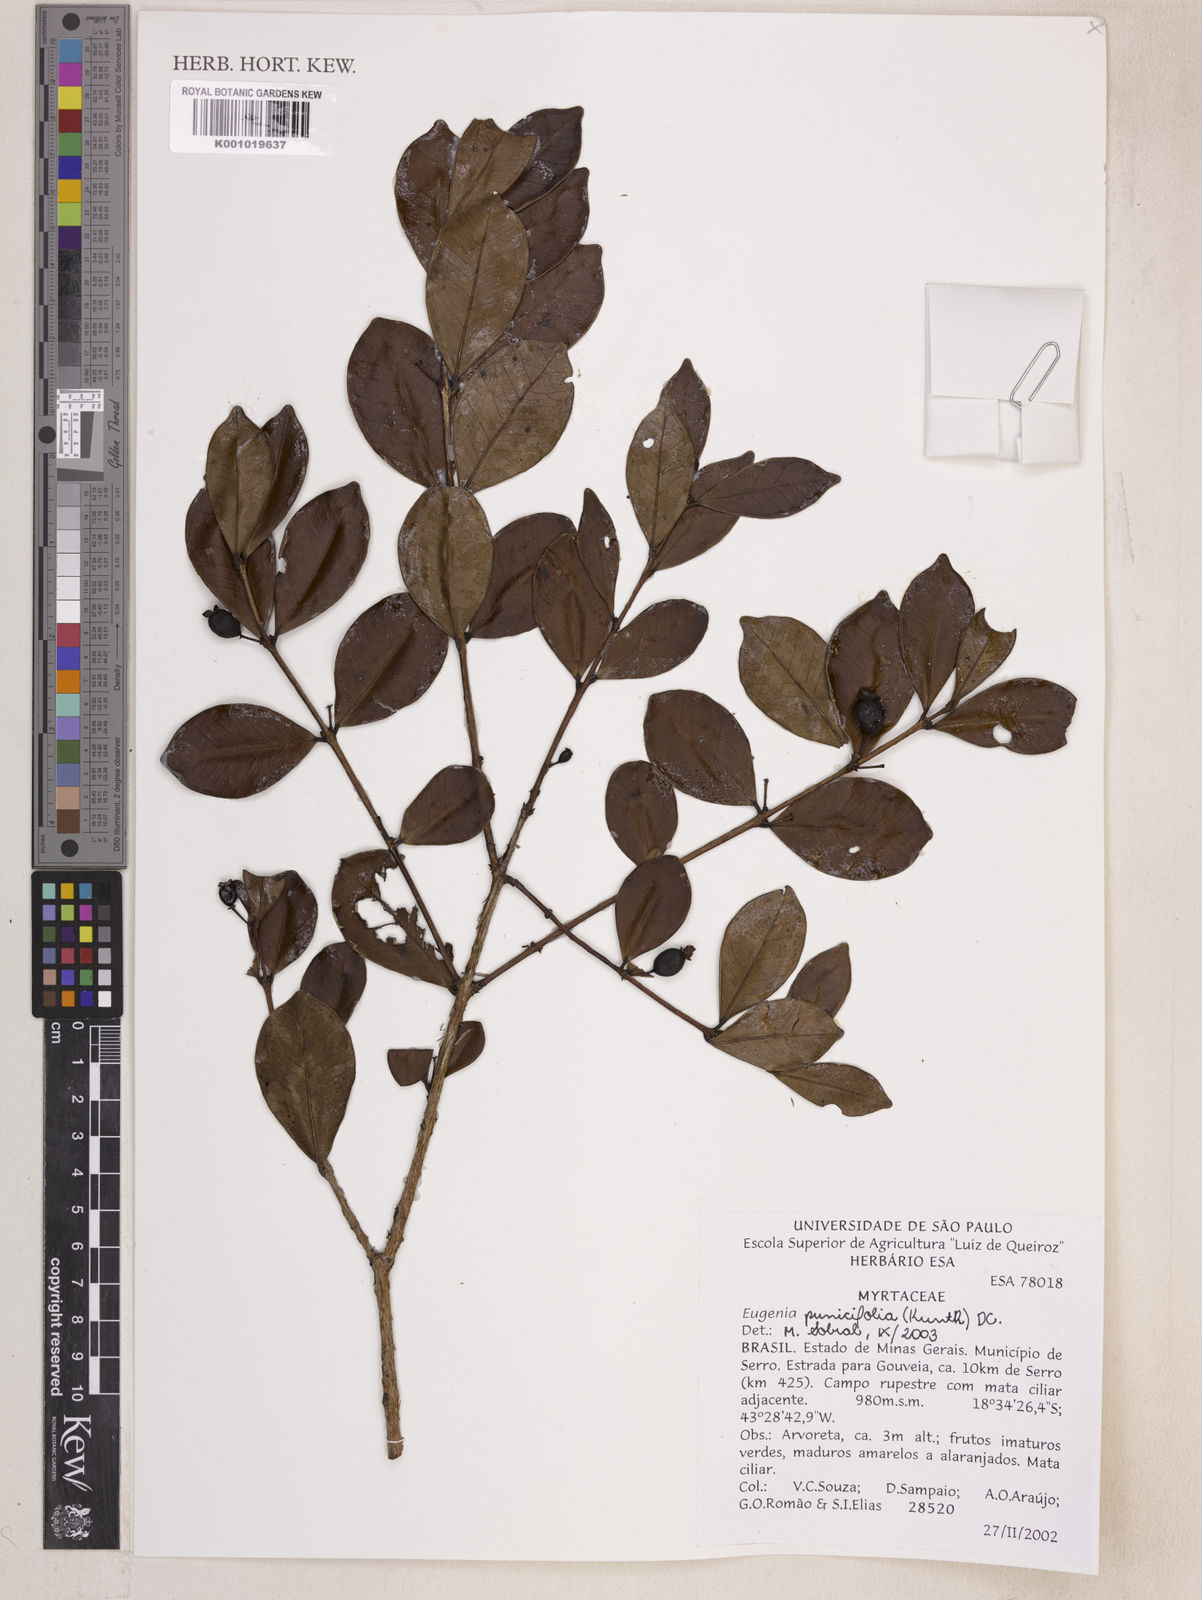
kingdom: Plantae
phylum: Tracheophyta
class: Magnoliopsida
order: Myrtales
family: Myrtaceae
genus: Eugenia
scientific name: Eugenia punicifolia
